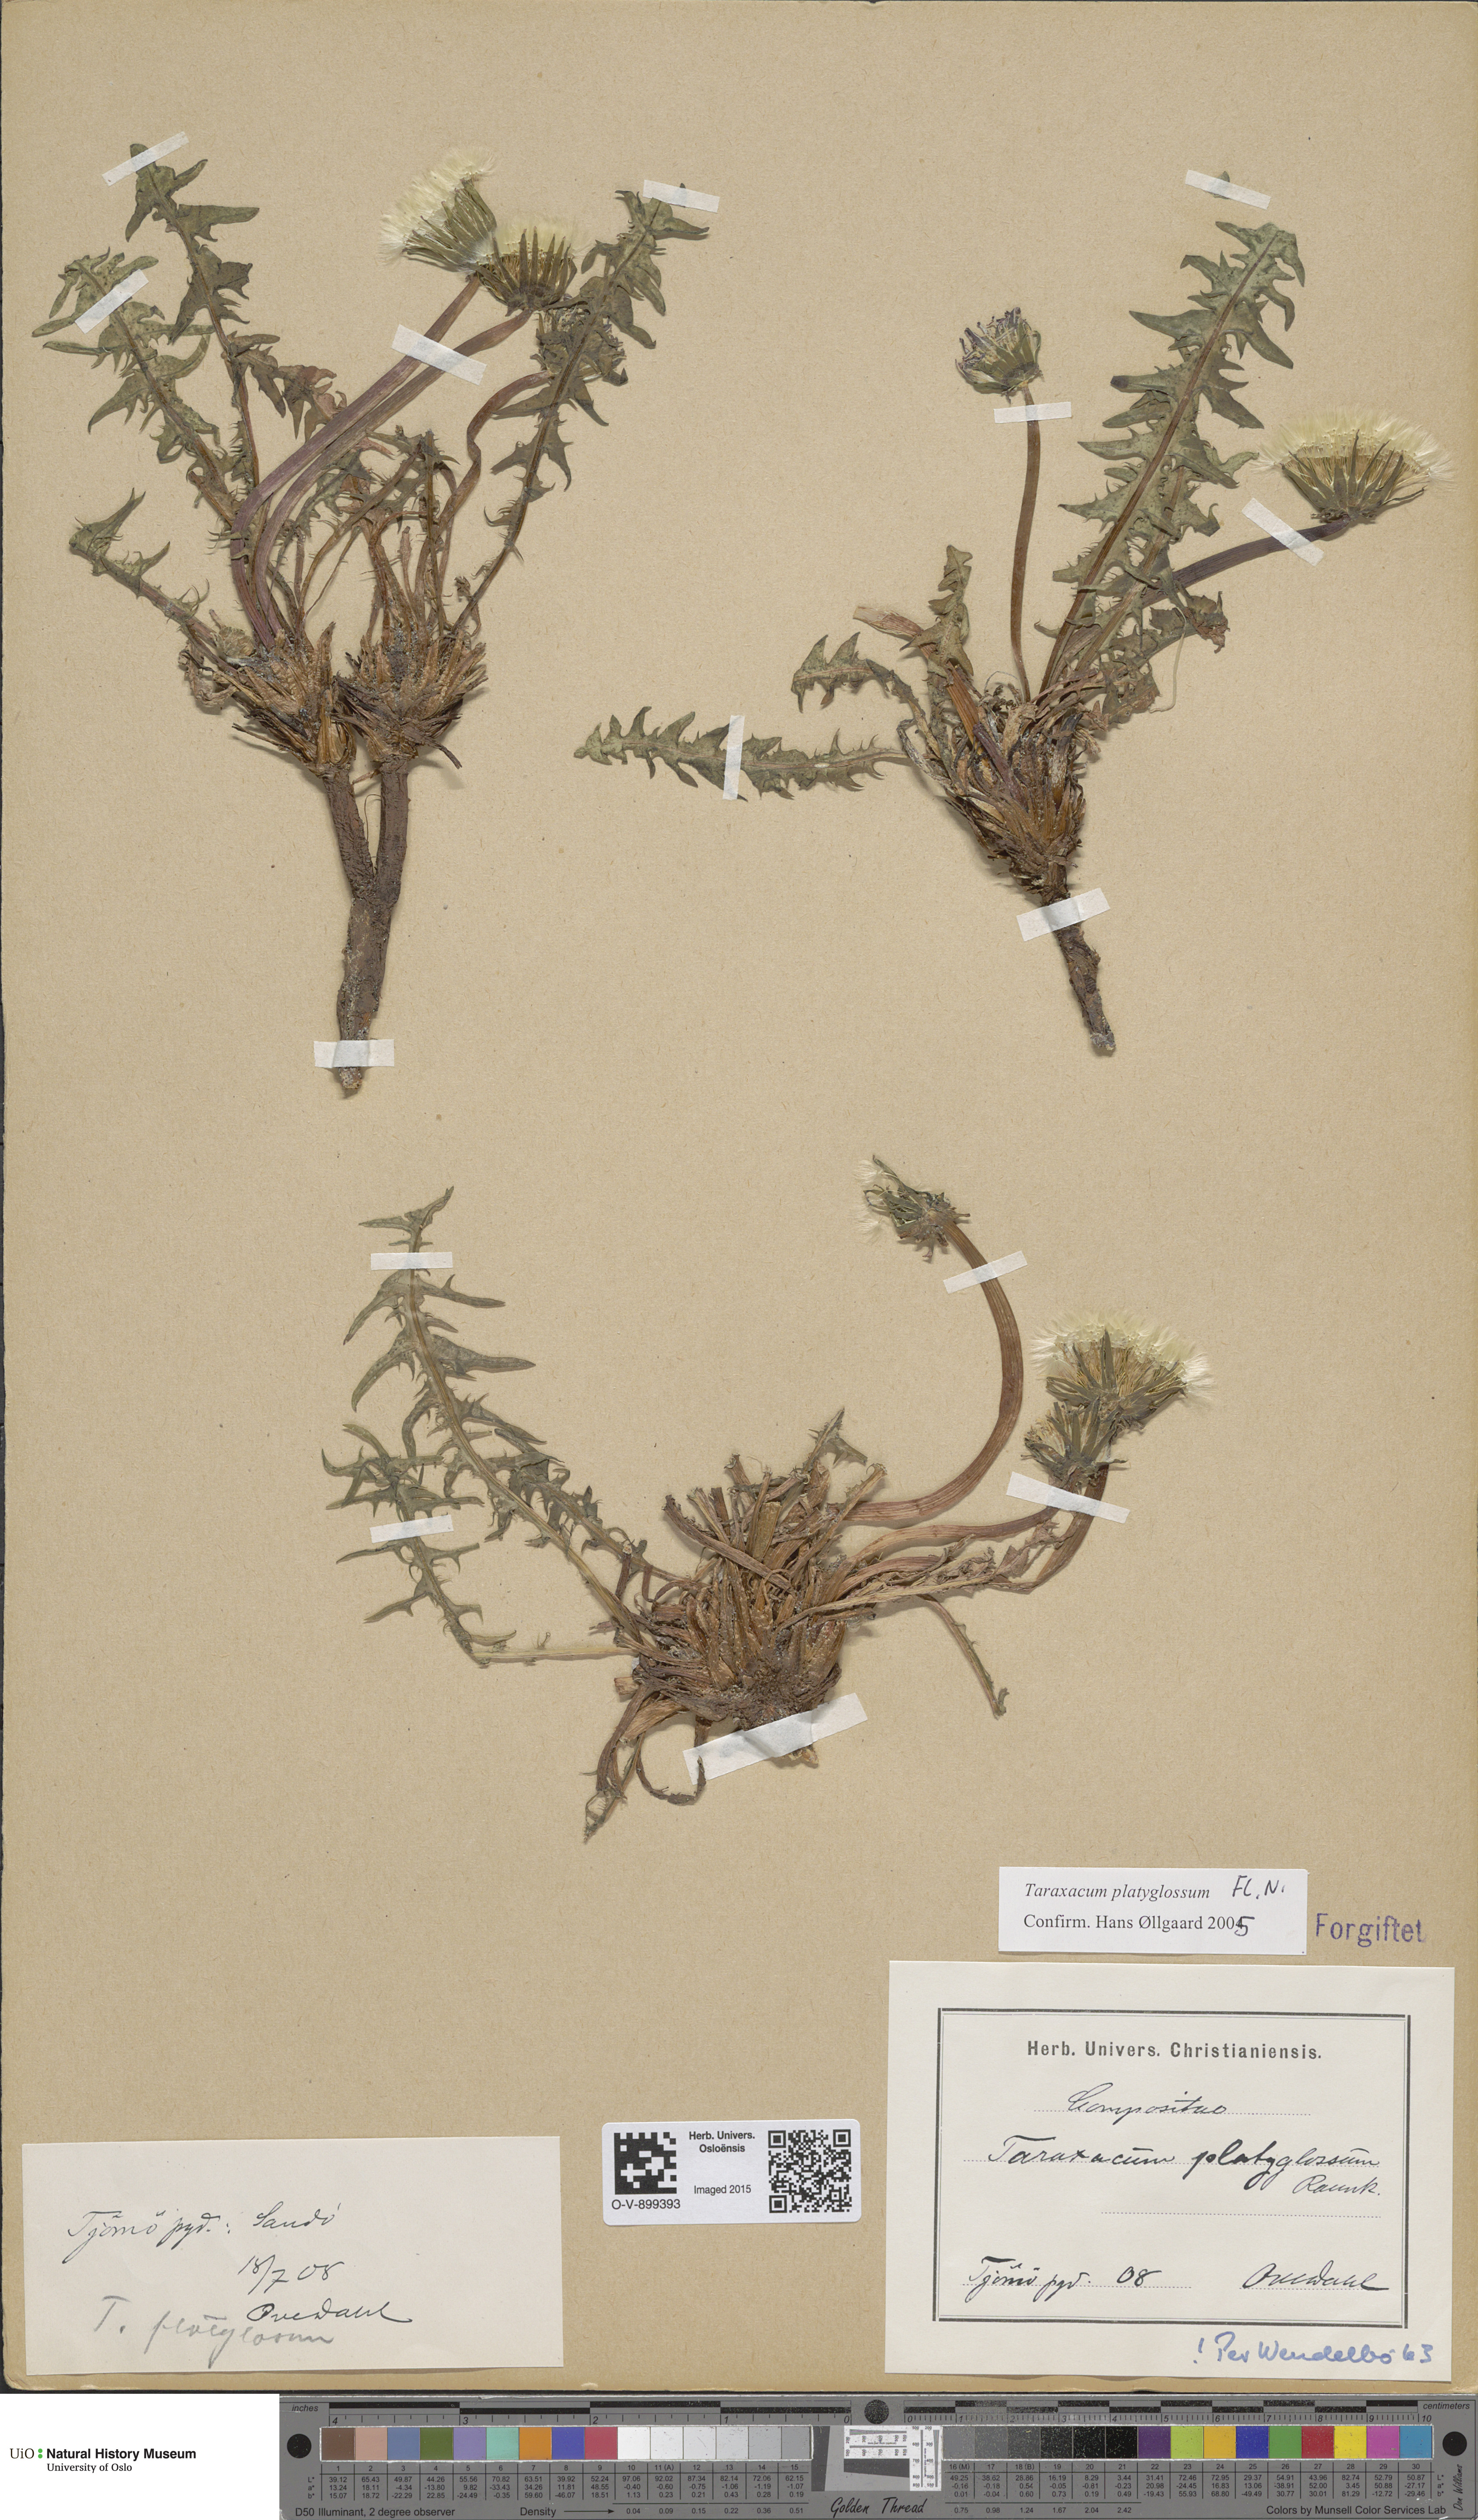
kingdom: Plantae
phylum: Tracheophyta
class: Magnoliopsida
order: Asterales
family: Asteraceae
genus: Taraxacum
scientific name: Taraxacum platyglossum
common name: Tongue-leaved dandelion
